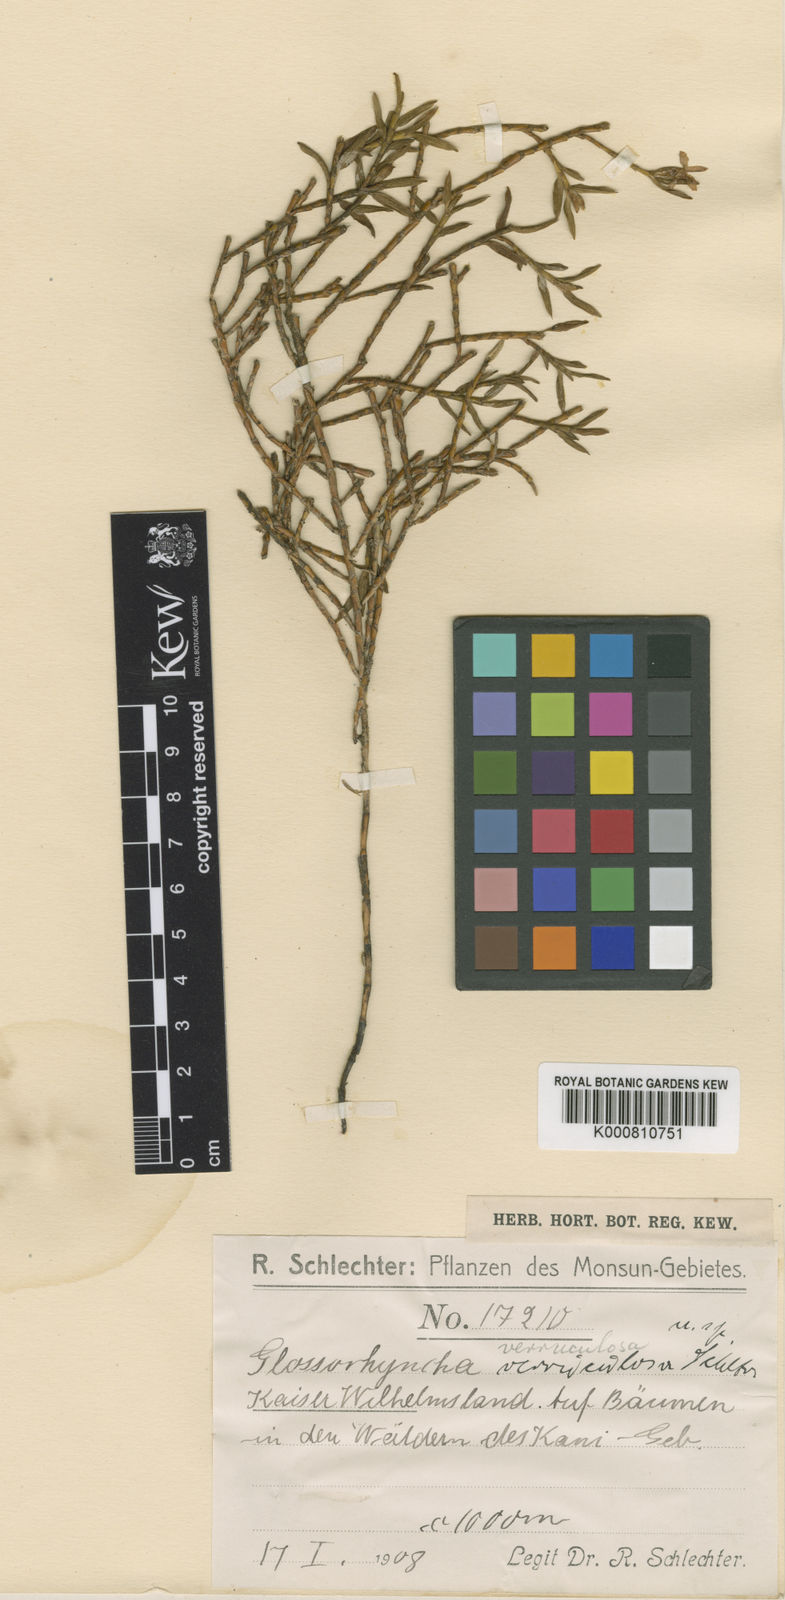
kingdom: Plantae
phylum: Tracheophyta
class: Liliopsida
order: Asparagales
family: Orchidaceae
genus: Glomera
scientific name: Glomera squamulosa
